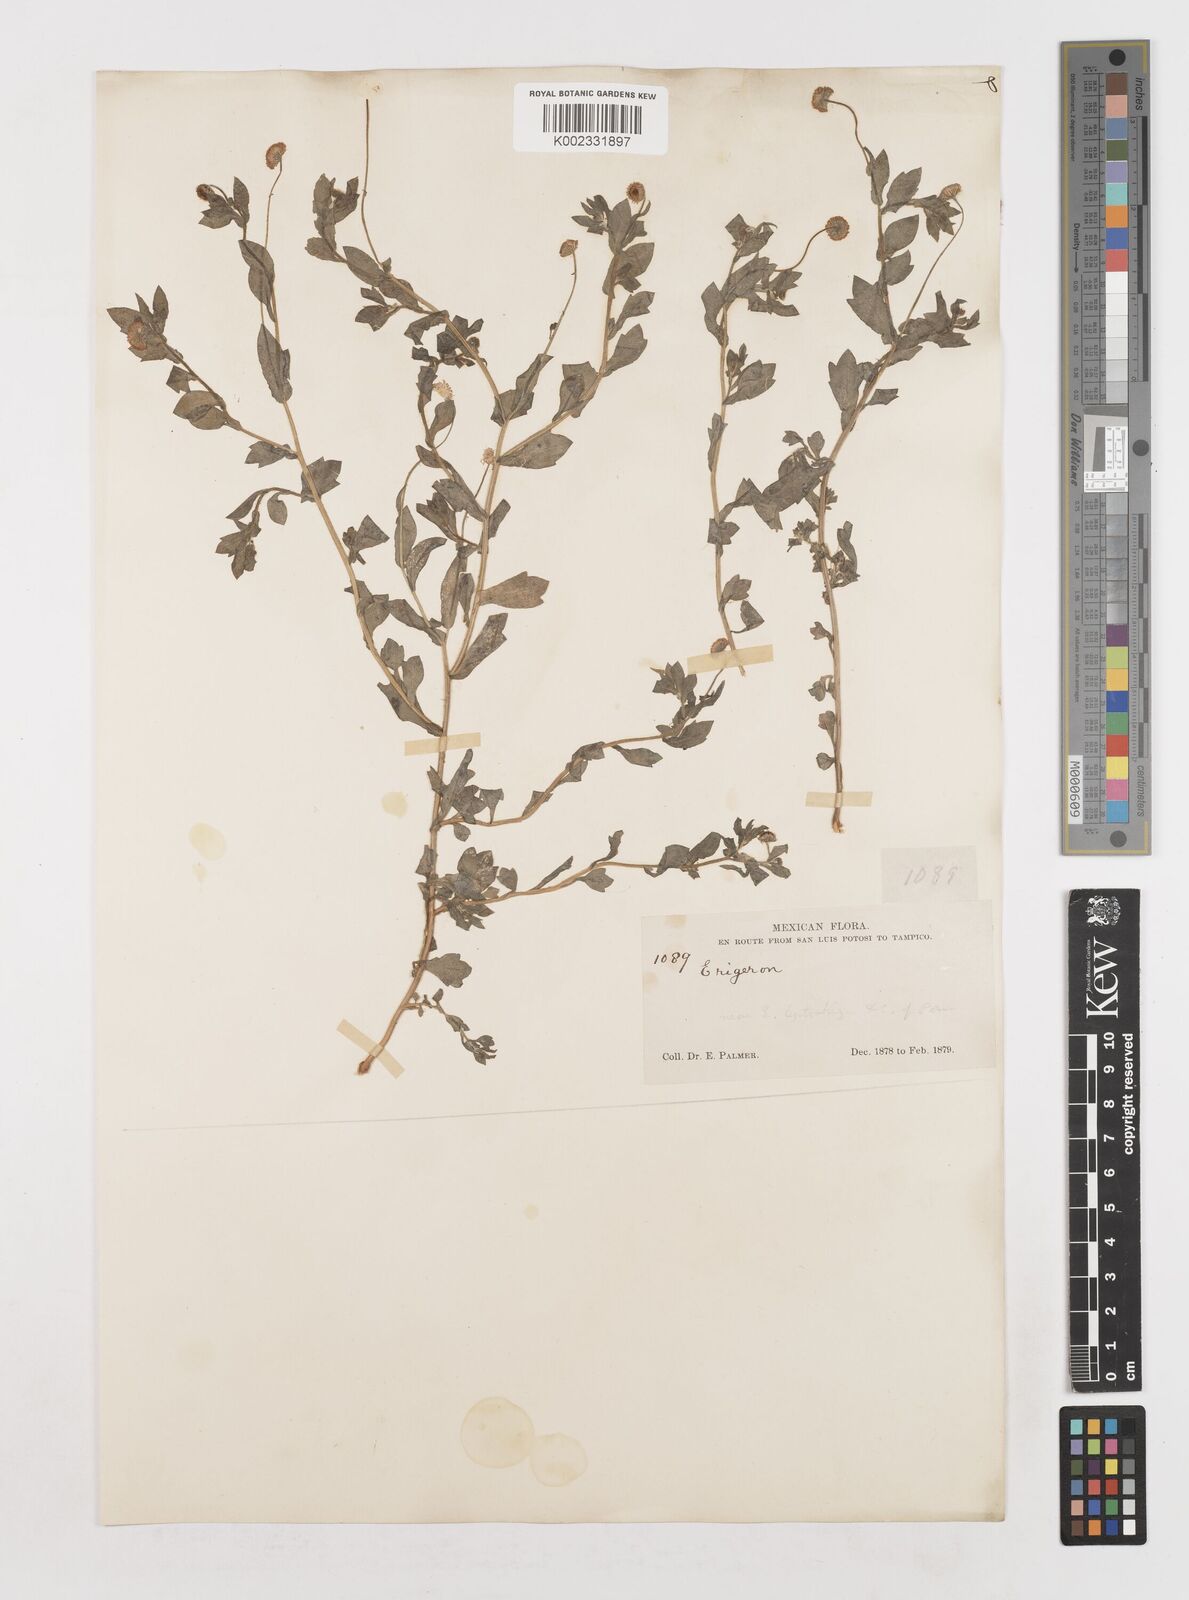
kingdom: Plantae
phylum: Tracheophyta
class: Magnoliopsida
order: Asterales
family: Asteraceae
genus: Erigeron
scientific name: Erigeron
